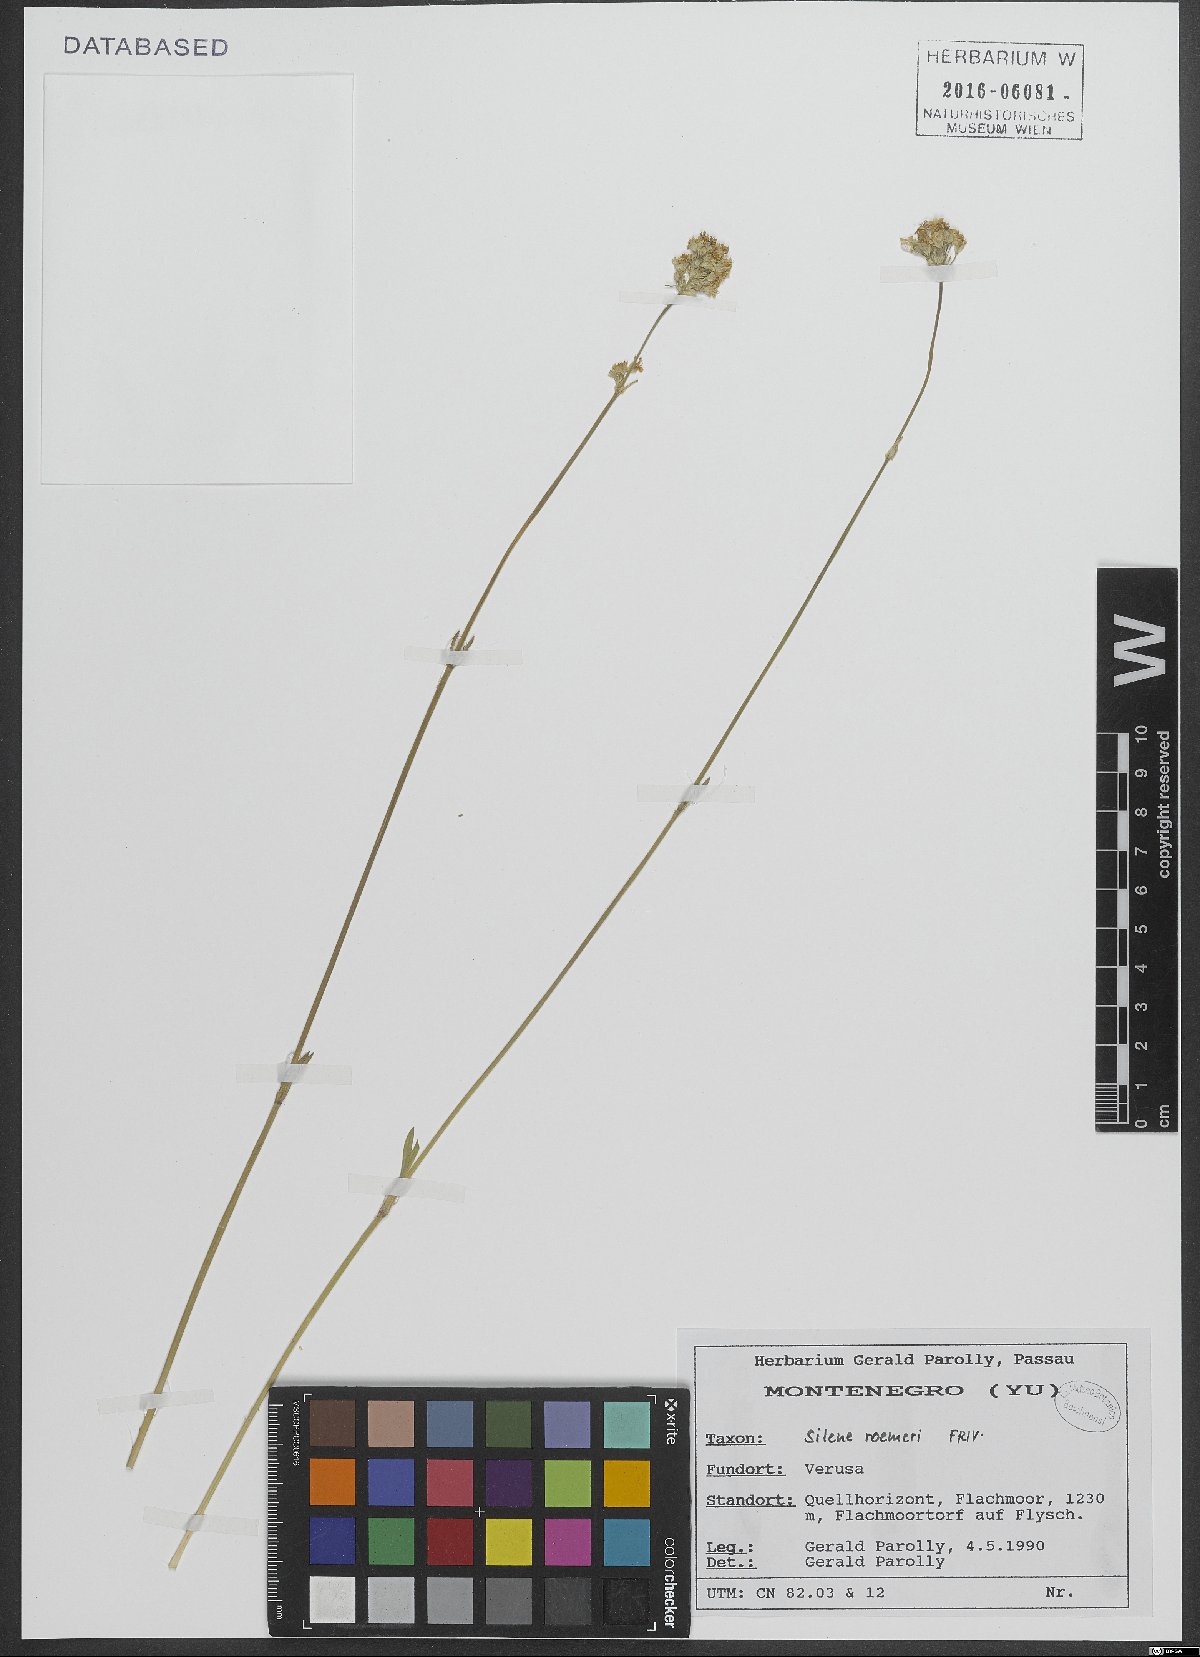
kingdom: Plantae
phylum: Tracheophyta
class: Magnoliopsida
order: Caryophyllales
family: Caryophyllaceae
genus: Silene
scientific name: Silene roemeri
